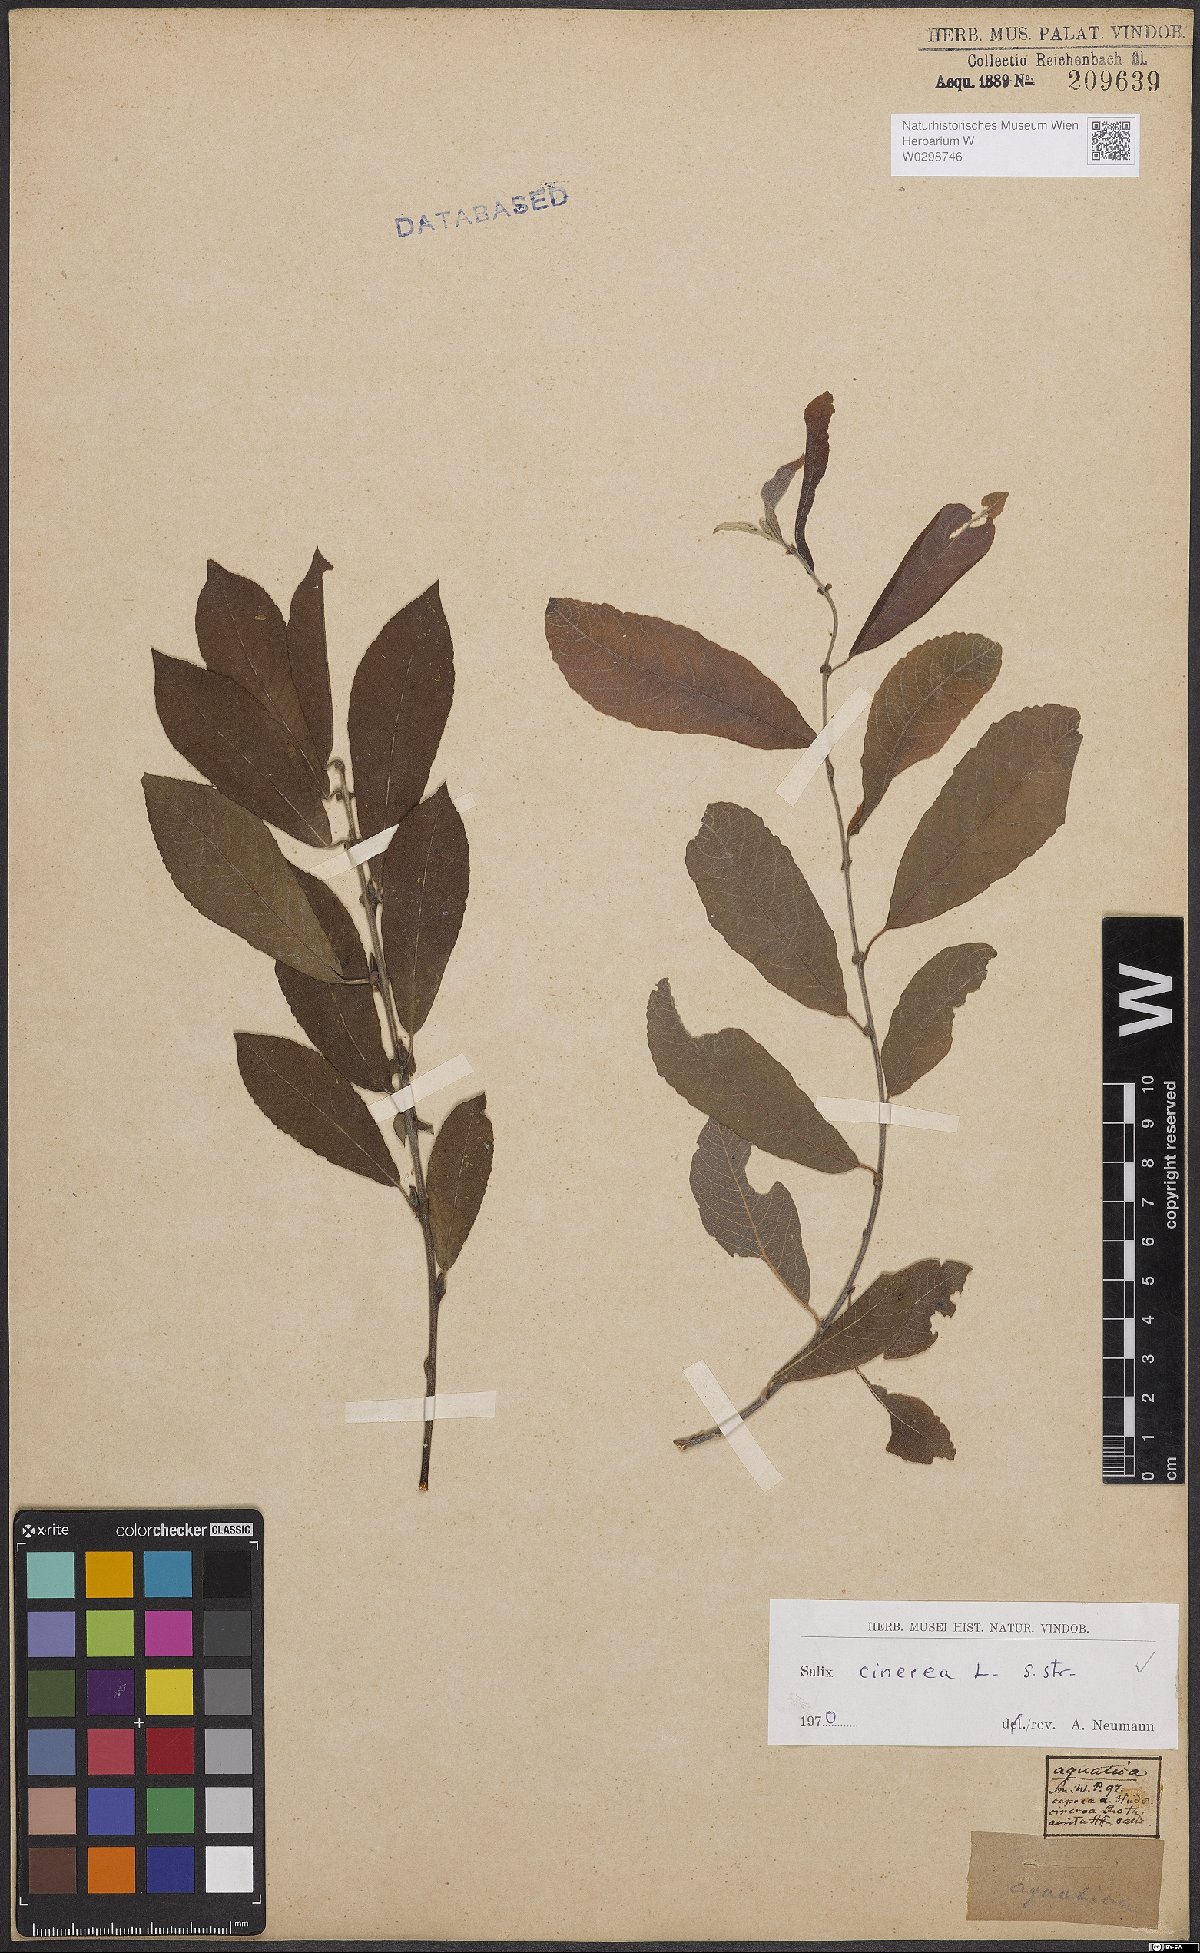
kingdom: Plantae
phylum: Tracheophyta
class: Magnoliopsida
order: Malpighiales
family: Salicaceae
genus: Salix
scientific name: Salix cinerea
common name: Common sallow
